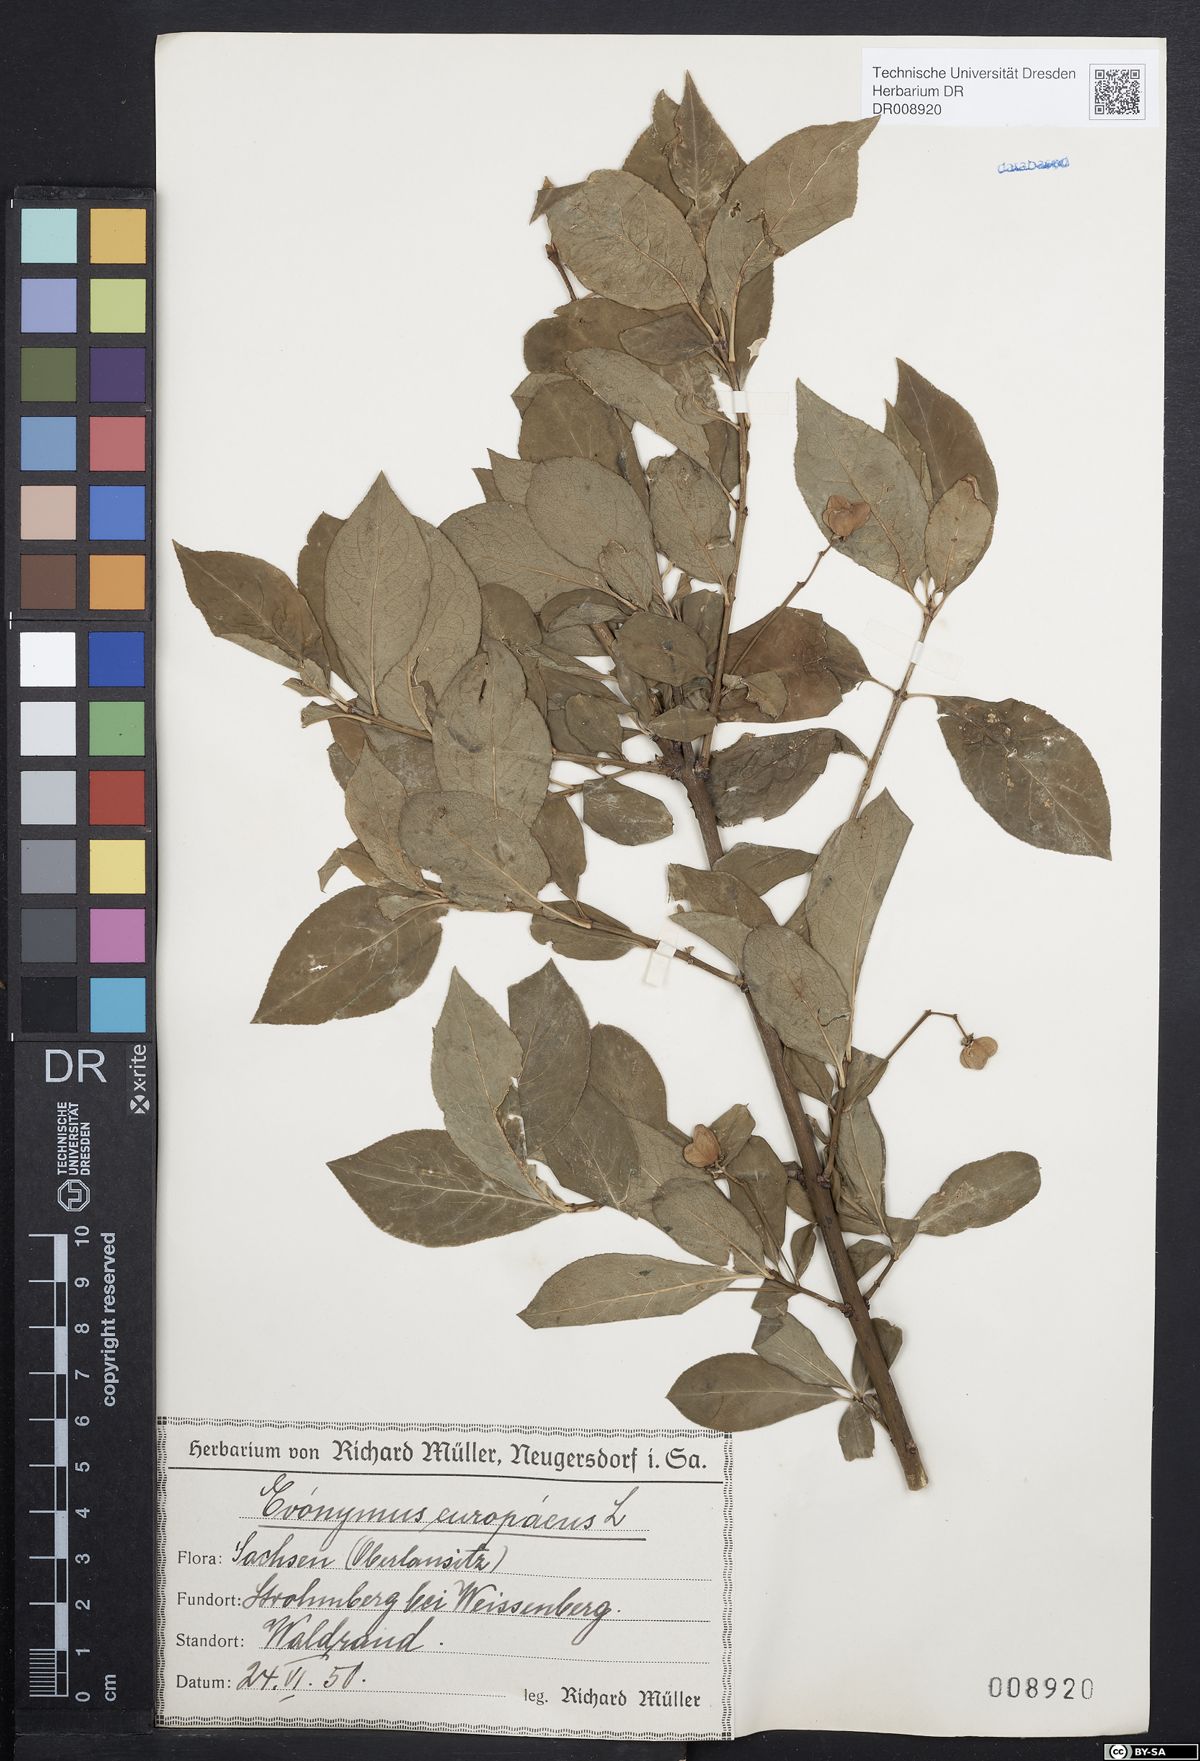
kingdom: Plantae
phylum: Tracheophyta
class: Magnoliopsida
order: Celastrales
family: Celastraceae
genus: Euonymus
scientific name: Euonymus europaeus
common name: Spindle
